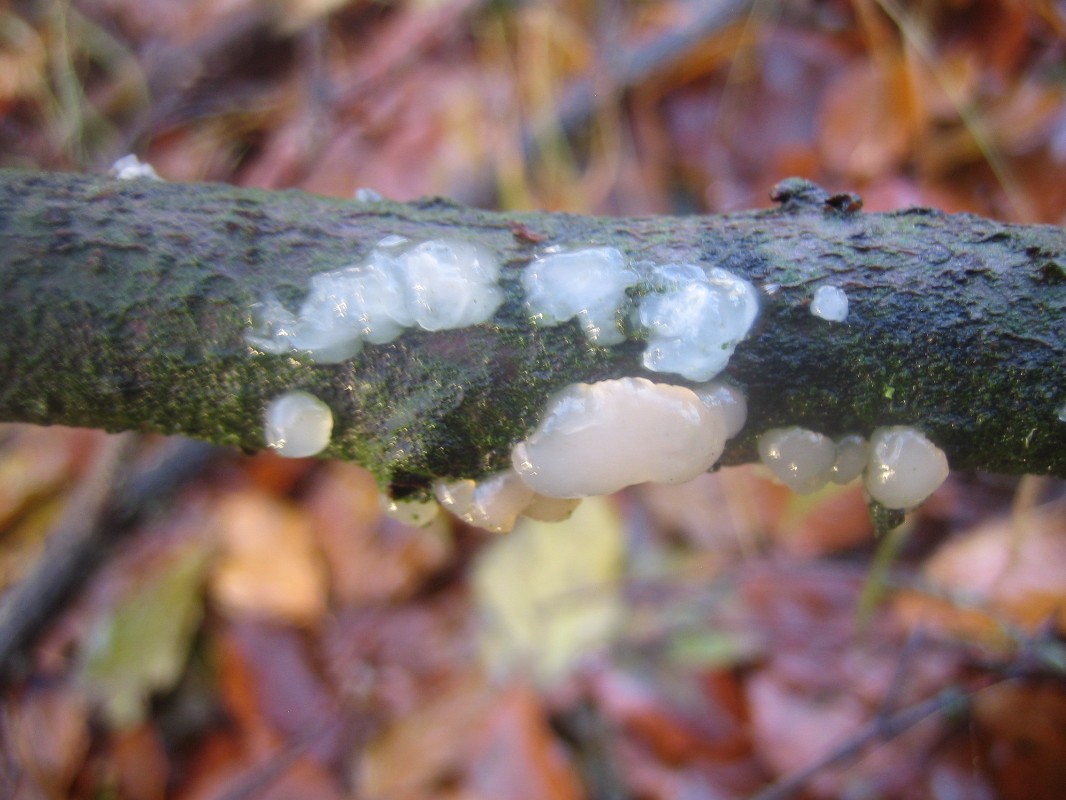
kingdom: Fungi
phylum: Basidiomycota
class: Agaricomycetes
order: Auriculariales
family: Hyaloriaceae
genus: Myxarium
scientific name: Myxarium nucleatum
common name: klar bævretop
